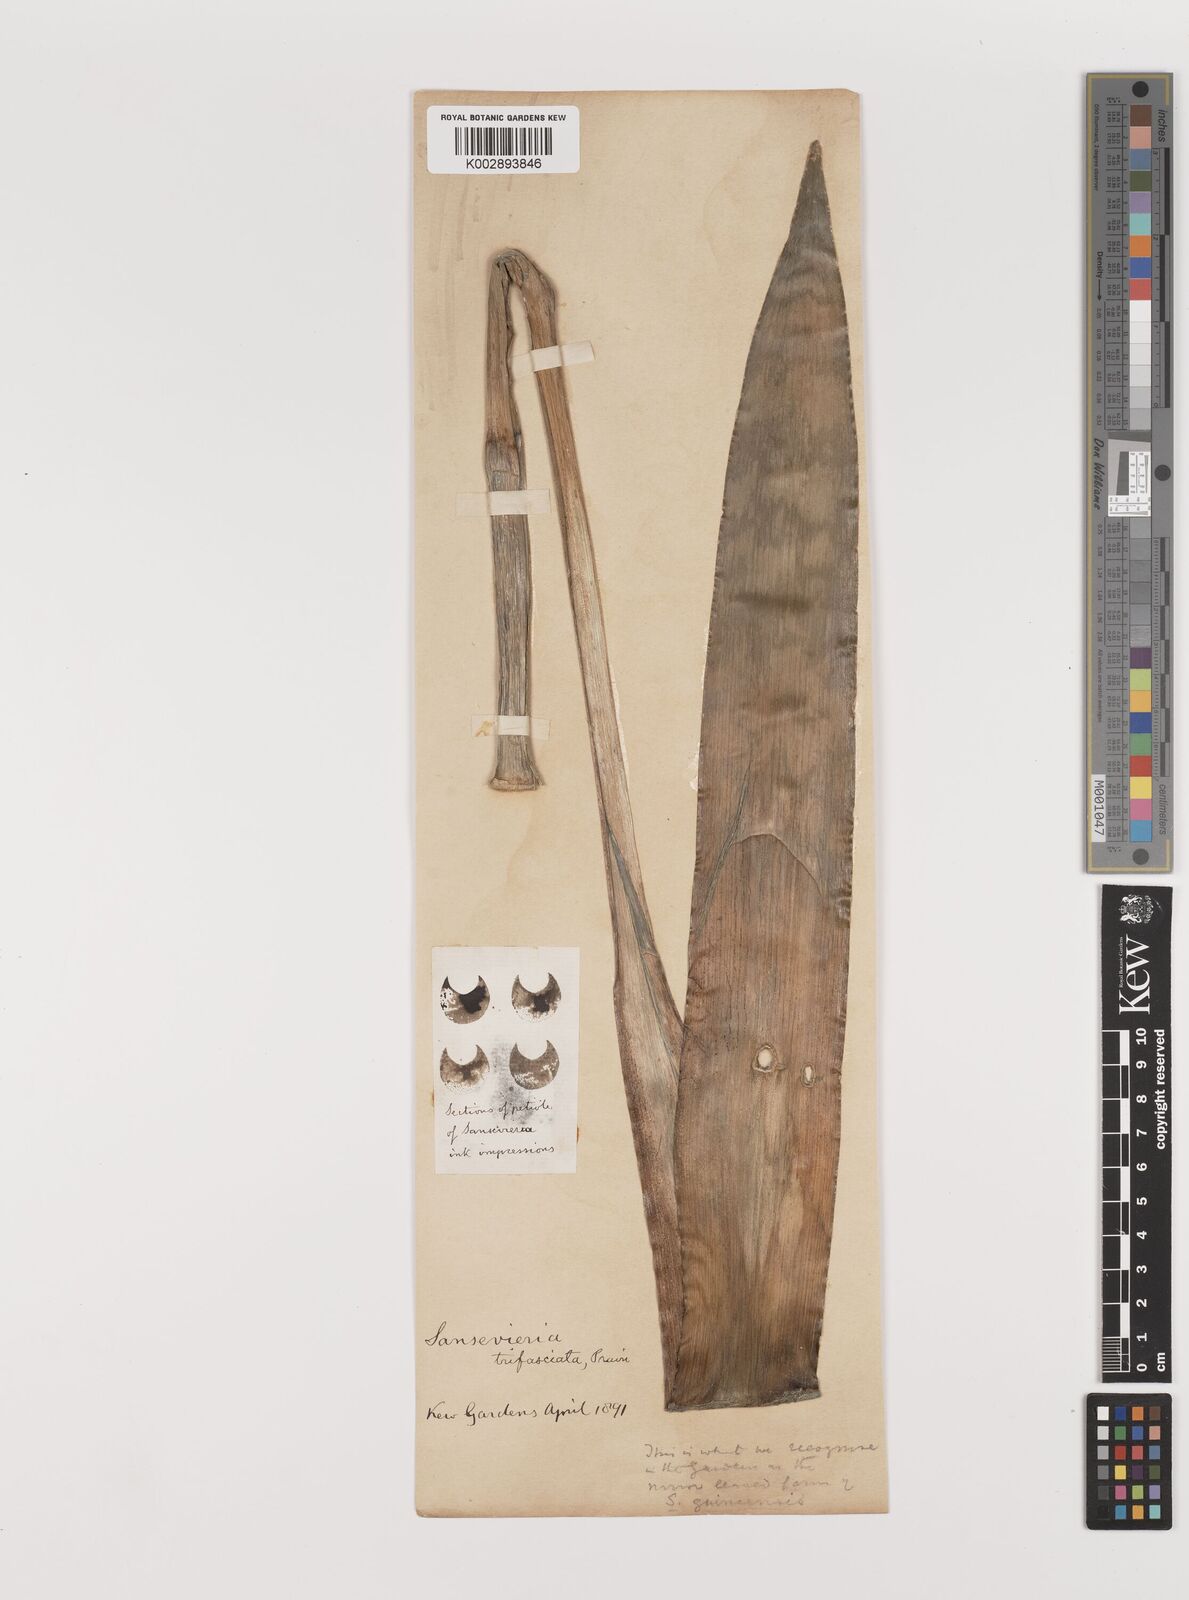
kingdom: Plantae
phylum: Tracheophyta
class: Liliopsida
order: Asparagales
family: Asparagaceae
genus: Dracaena
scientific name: Dracaena trifasciata
